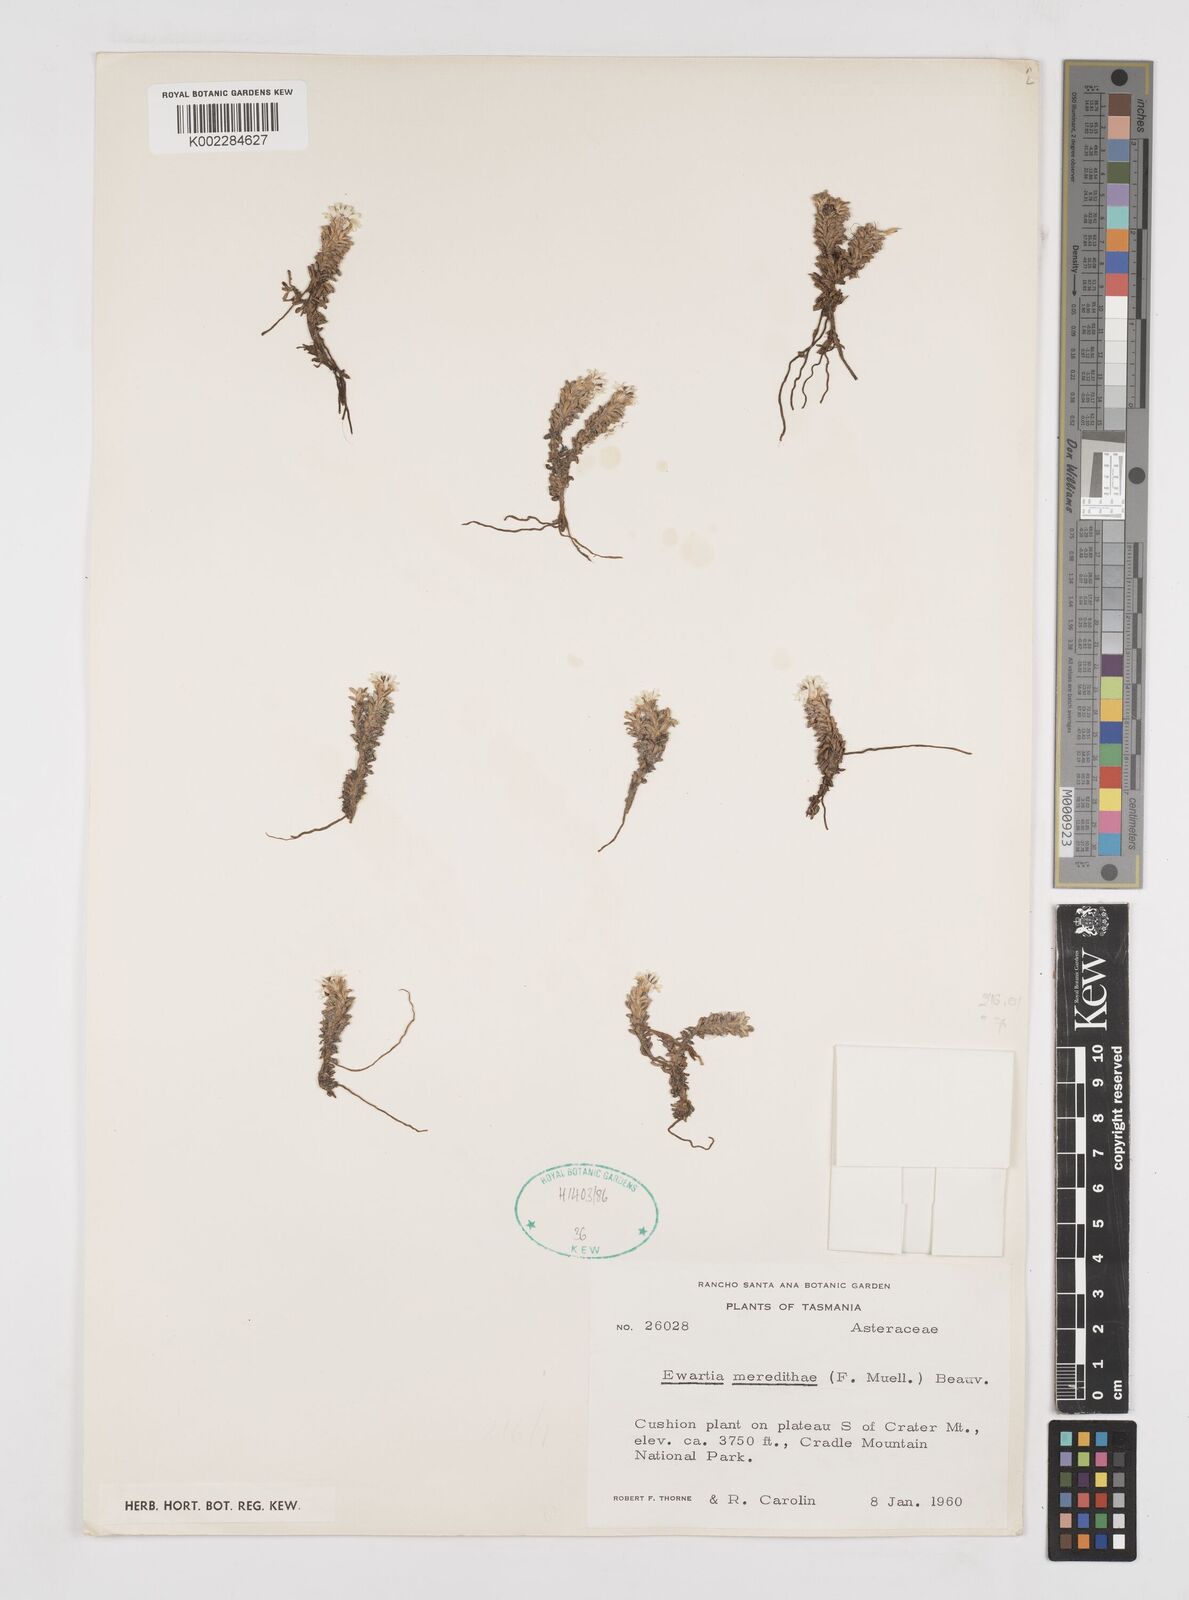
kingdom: Plantae
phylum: Tracheophyta
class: Magnoliopsida
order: Asterales
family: Asteraceae
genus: Ewartia
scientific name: Ewartia meredithae
